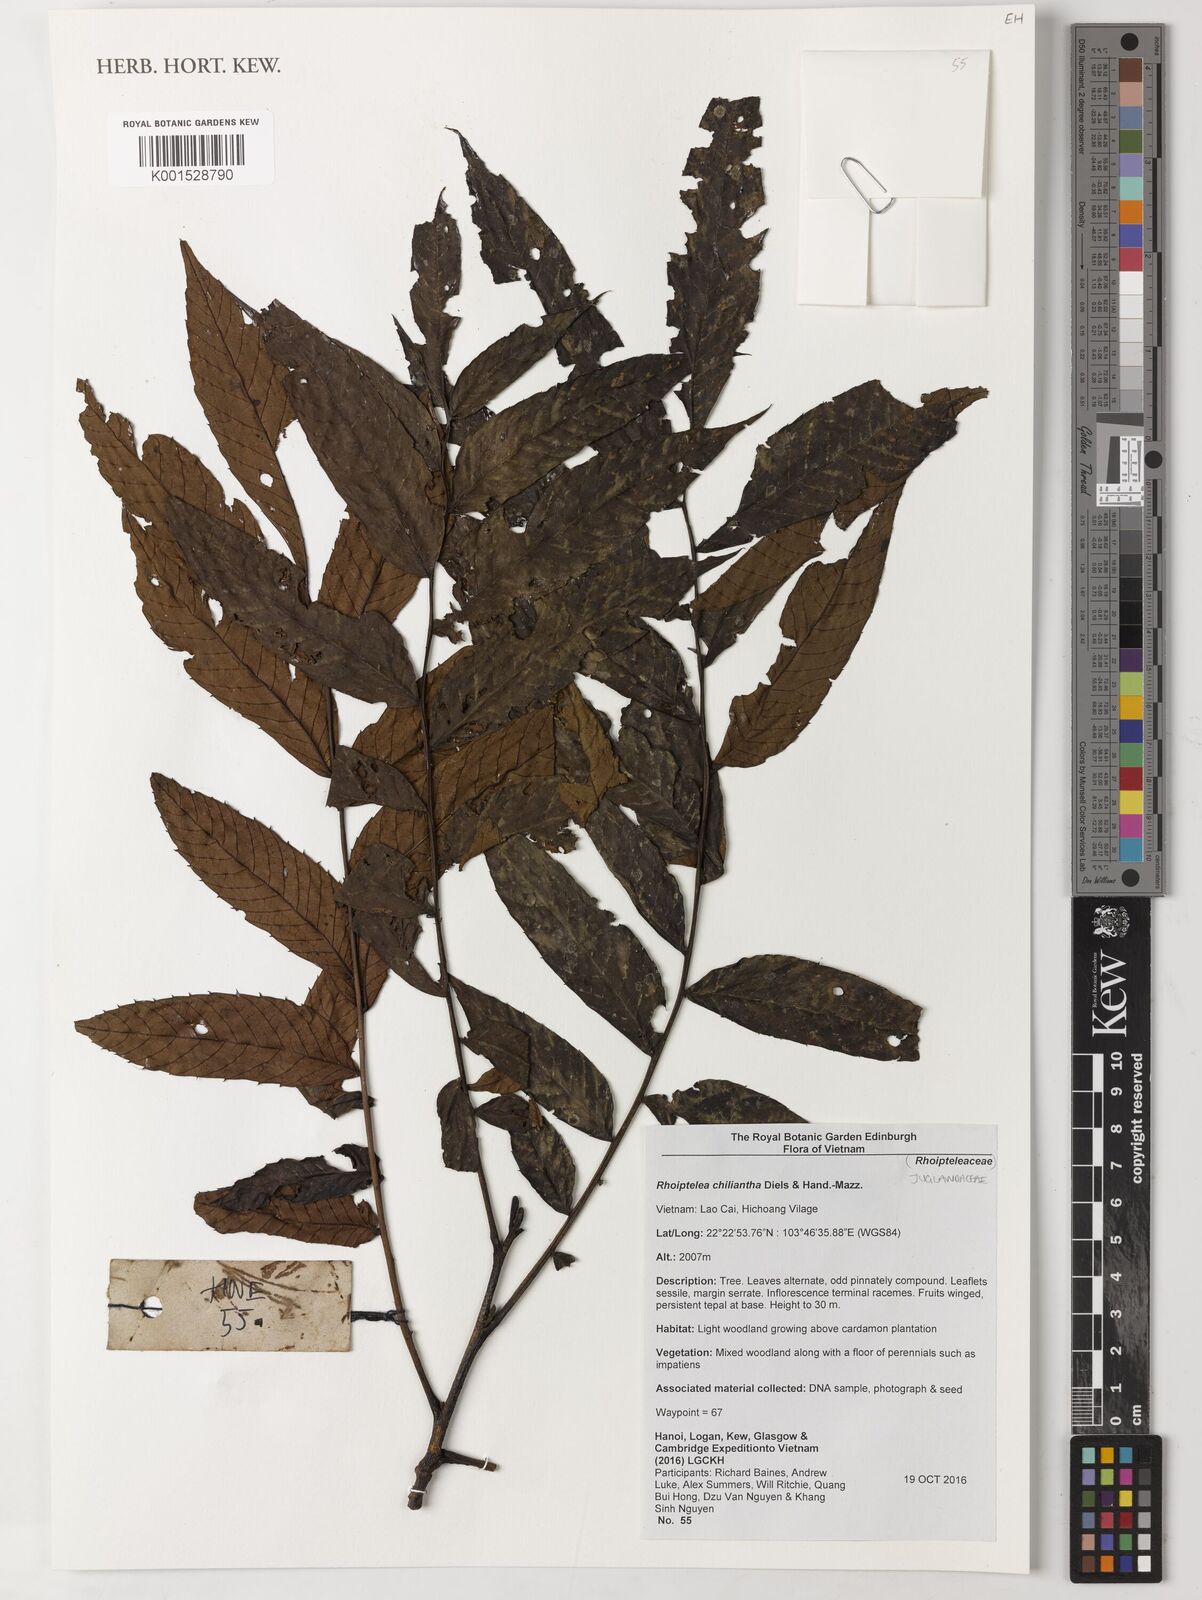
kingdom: Plantae
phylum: Tracheophyta
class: Magnoliopsida
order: Fagales
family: Juglandaceae
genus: Rhoiptelea
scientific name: Rhoiptelea chiliantha
